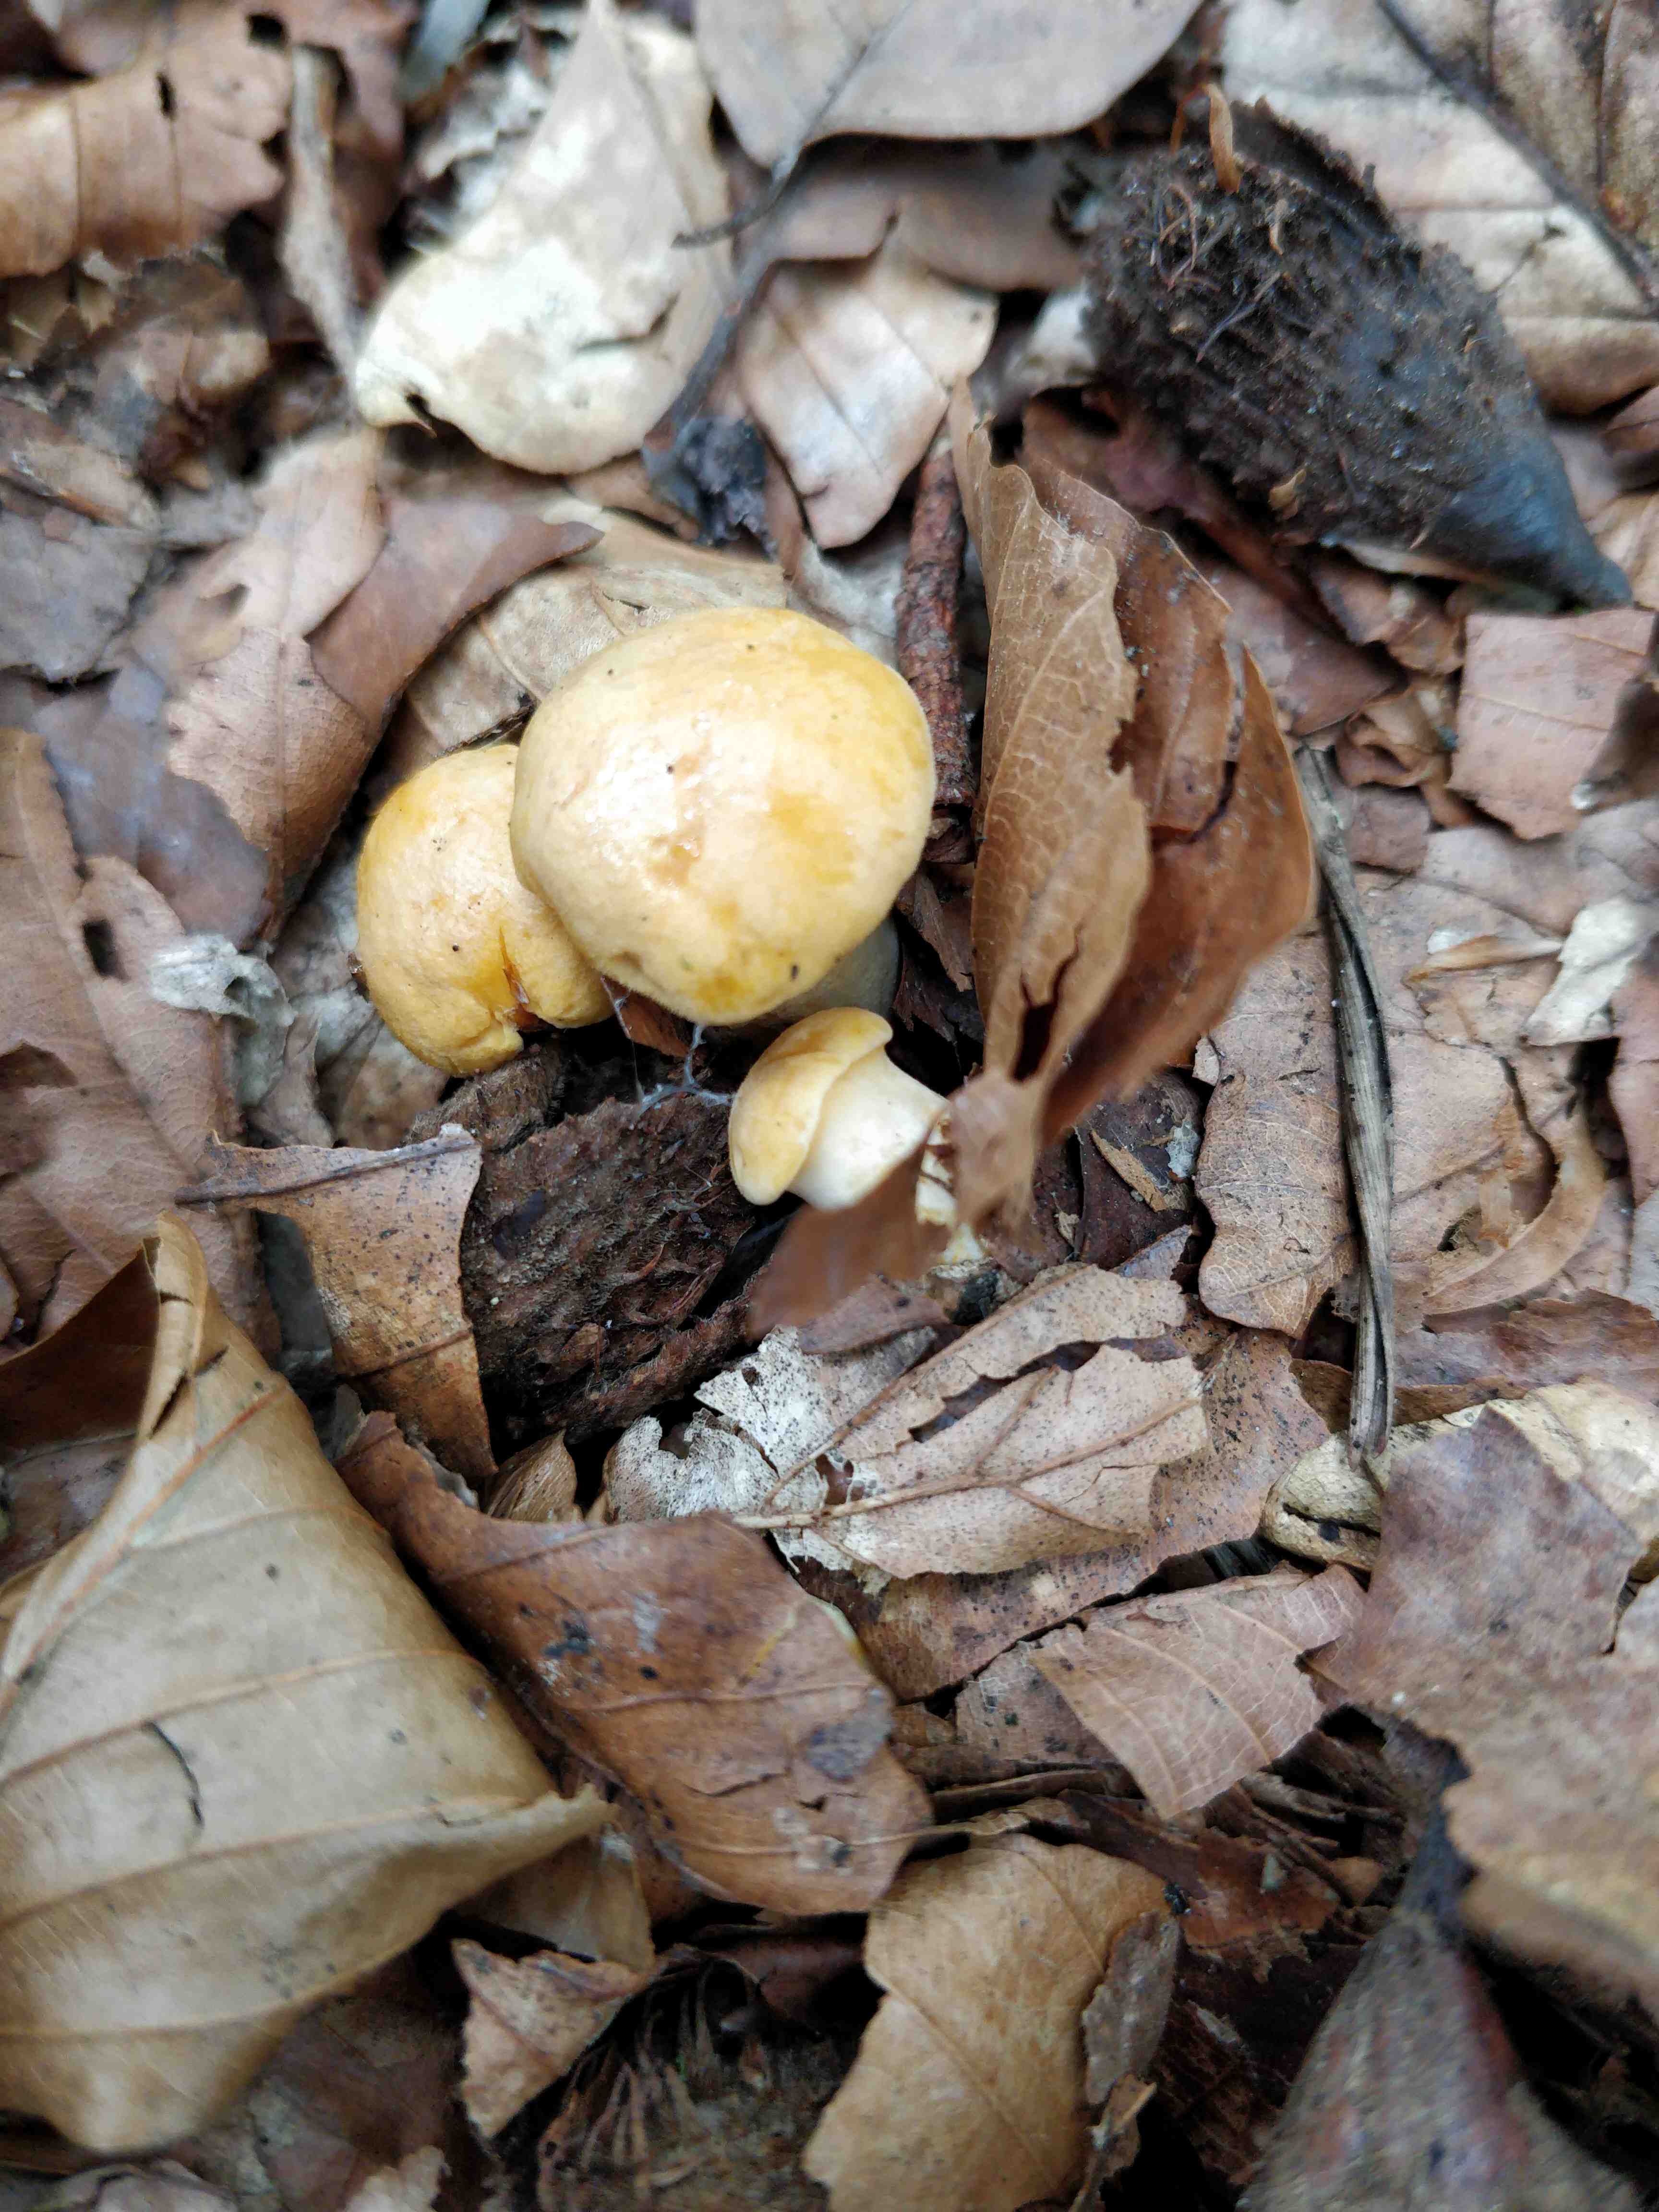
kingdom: Fungi
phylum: Basidiomycota
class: Agaricomycetes
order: Cantharellales
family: Hydnaceae
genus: Cantharellus
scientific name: Cantharellus pallens
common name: bleg kantarel
